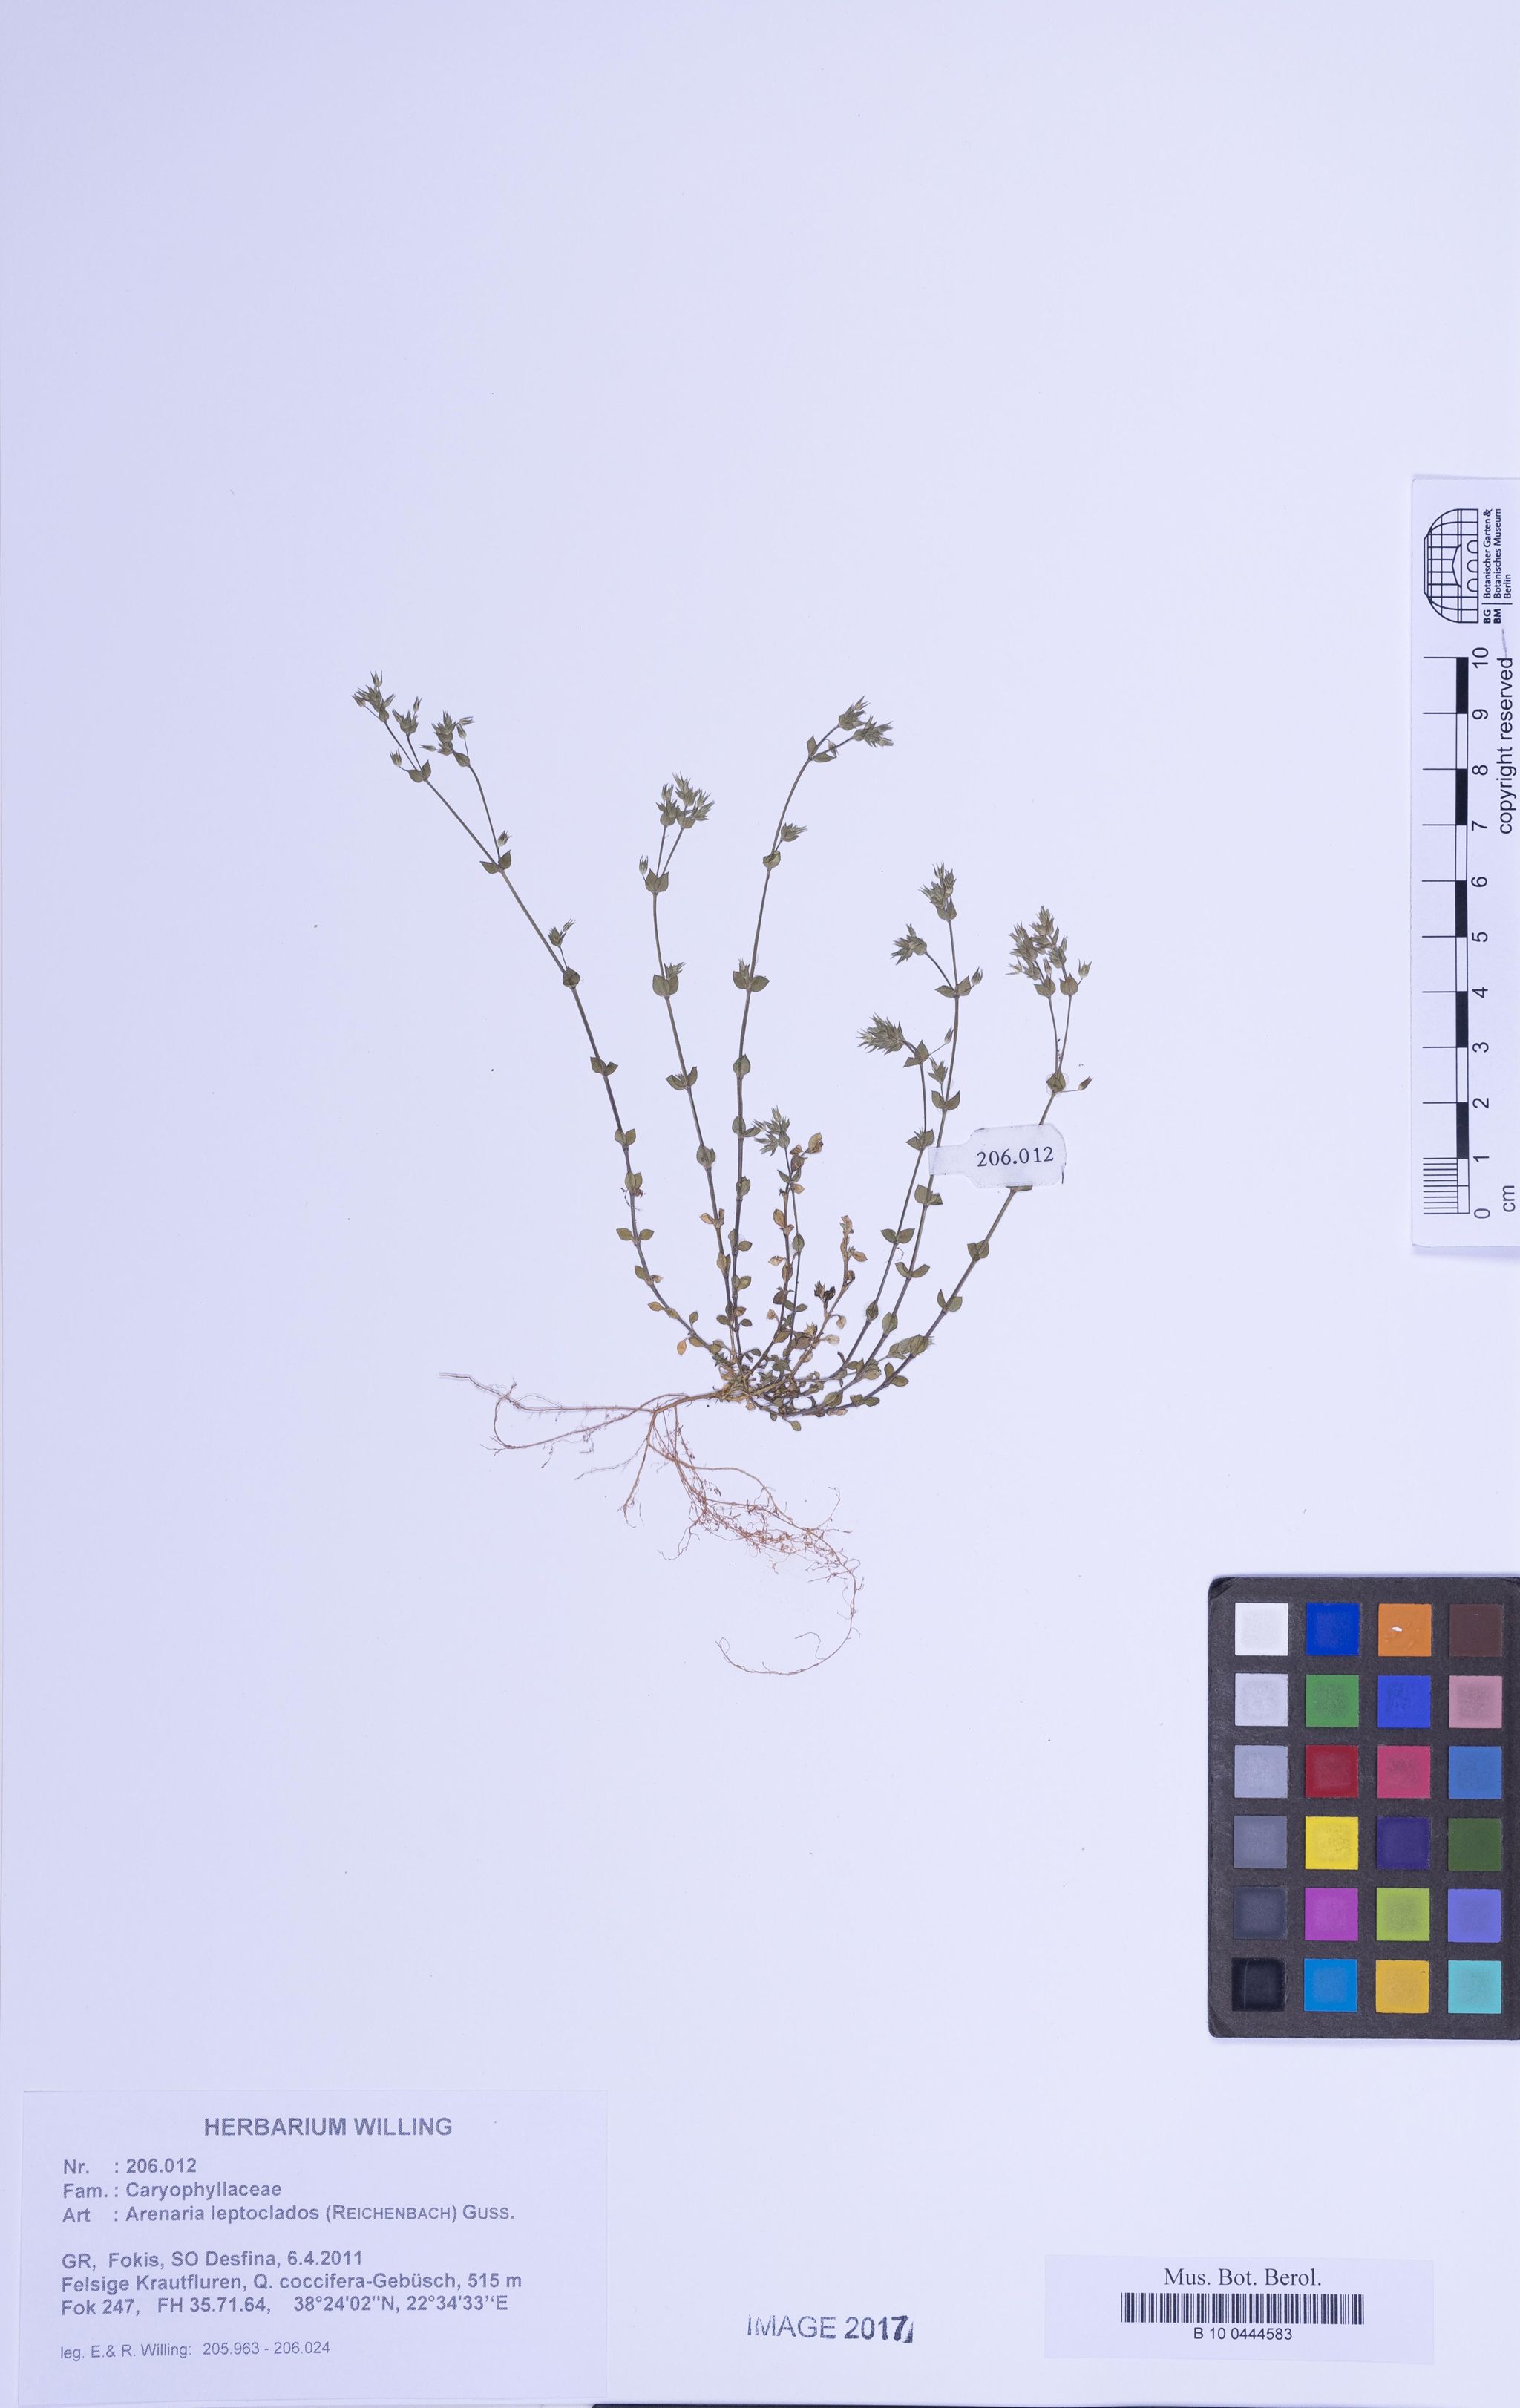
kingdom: Plantae
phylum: Tracheophyta
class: Magnoliopsida
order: Caryophyllales
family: Caryophyllaceae
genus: Arenaria
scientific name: Arenaria leptoclados
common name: Thyme-leaved sandwort
